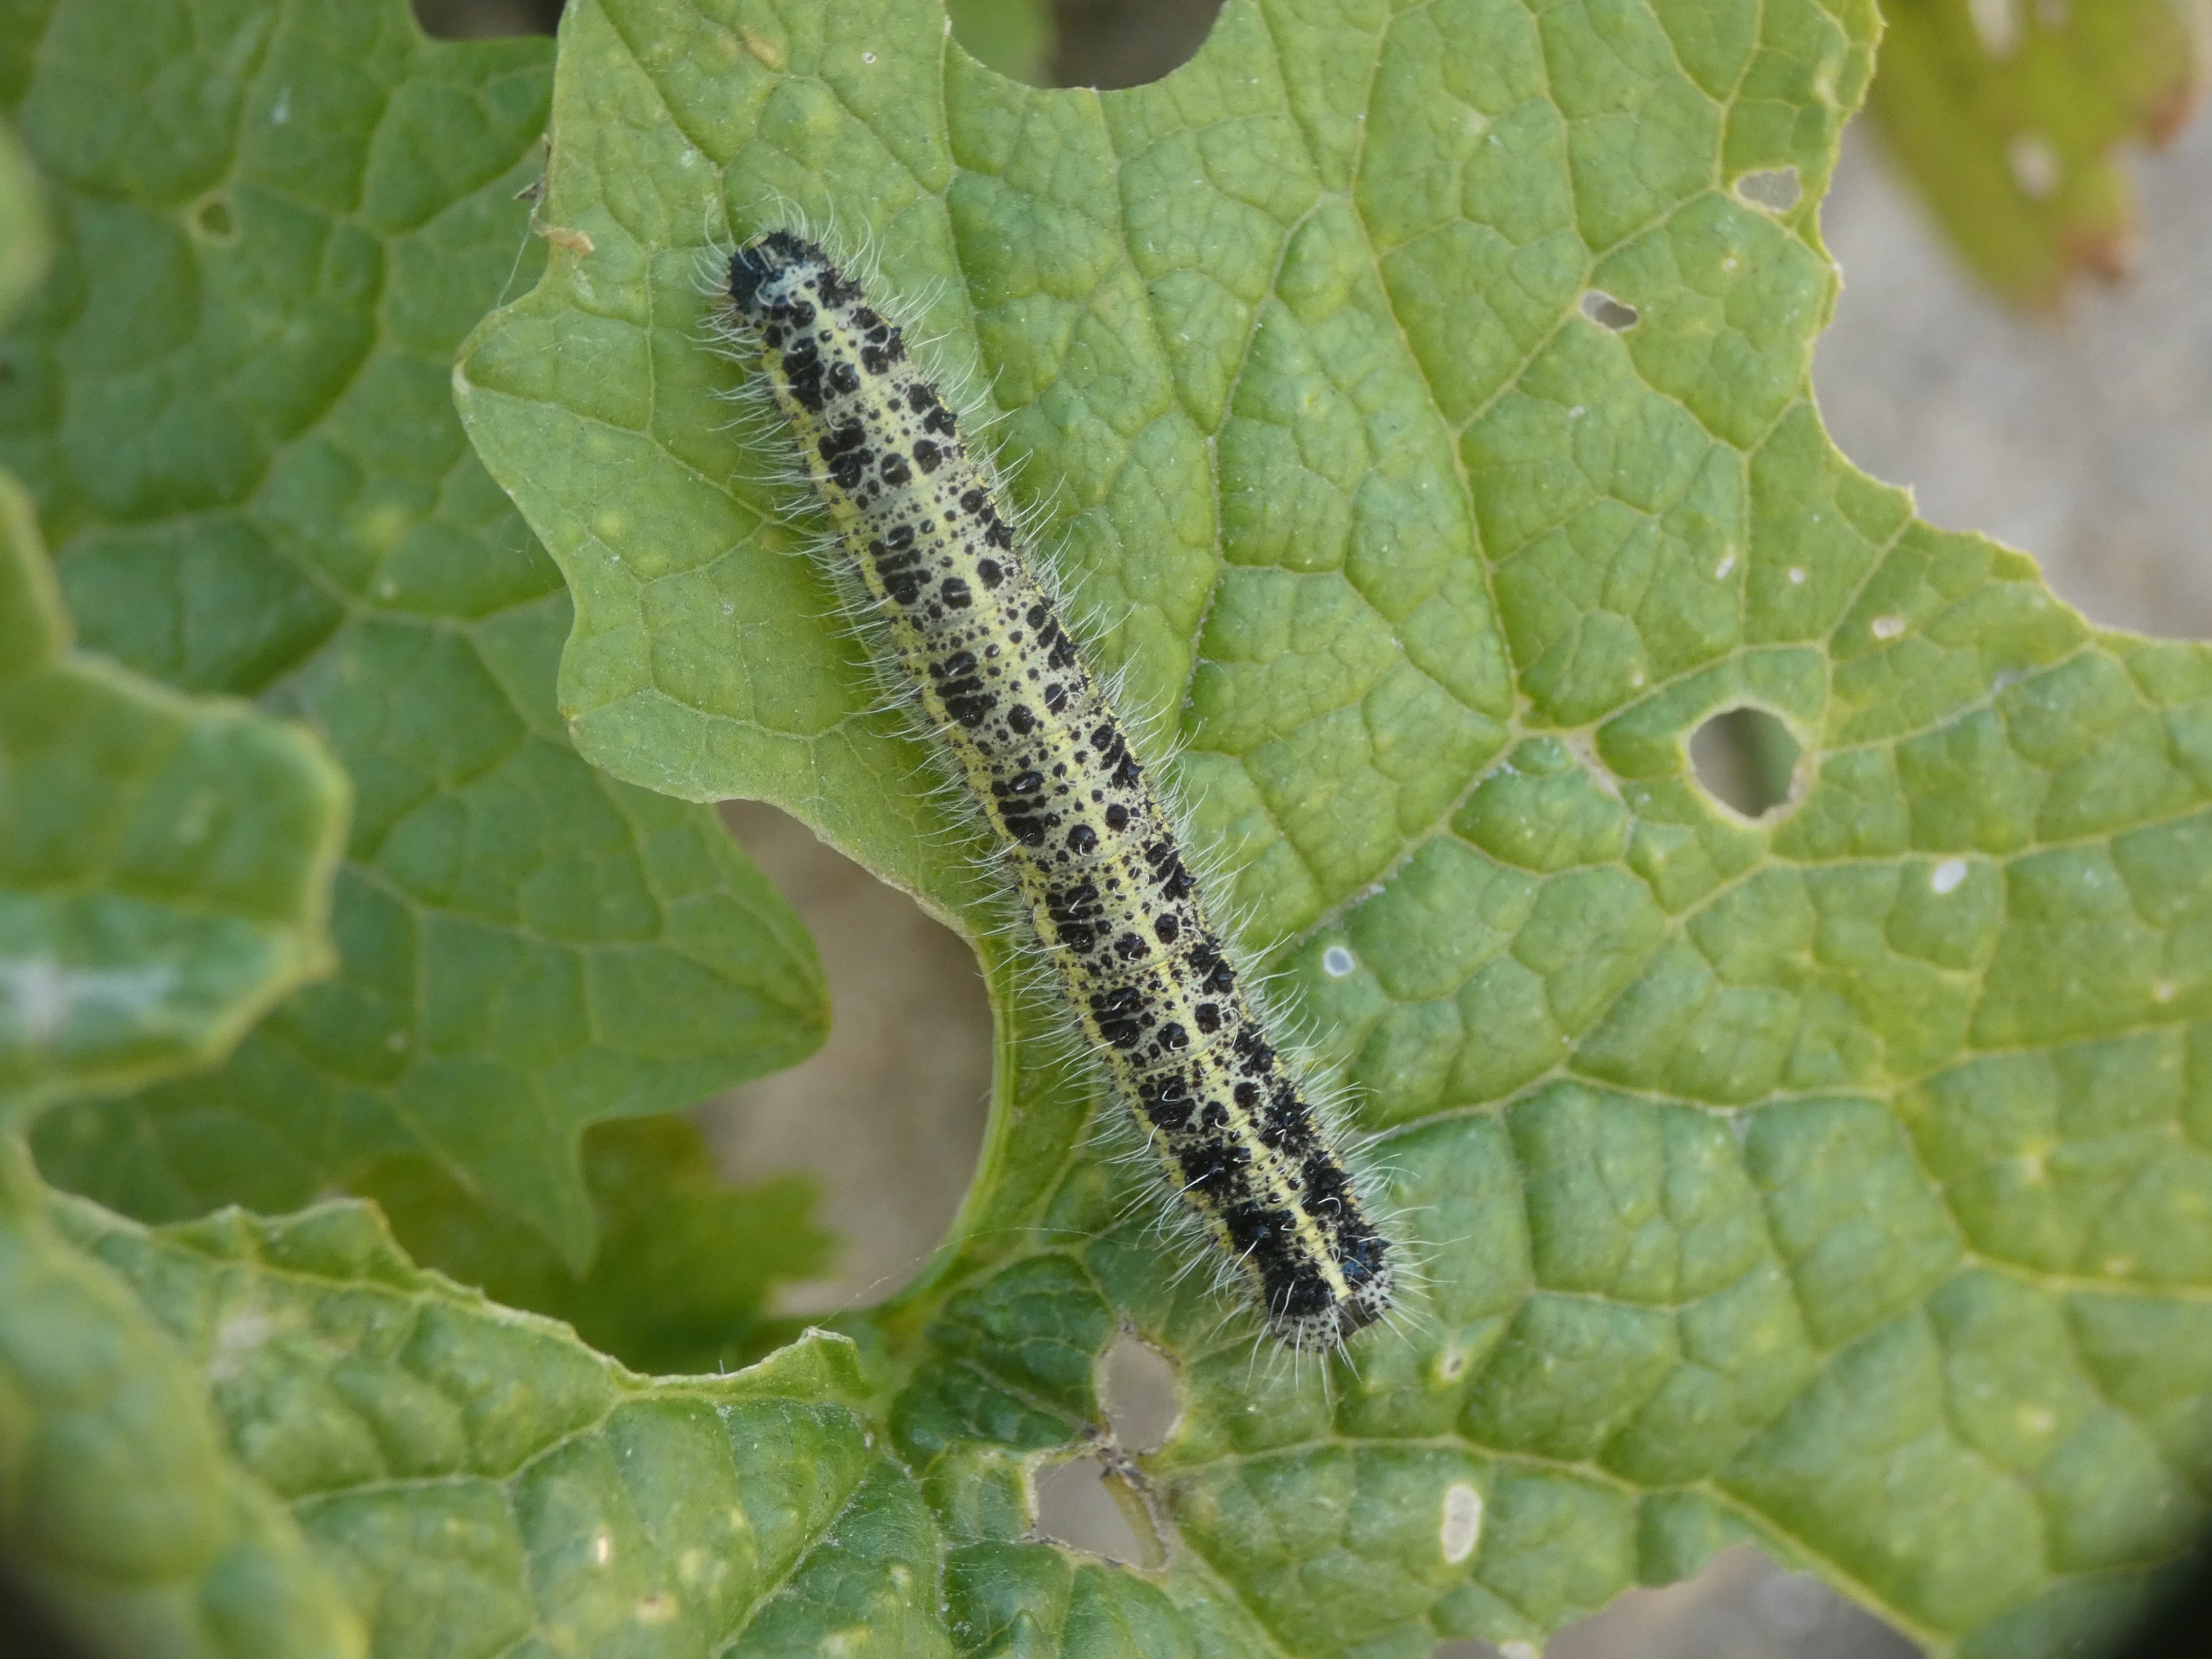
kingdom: Animalia
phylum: Arthropoda
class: Insecta
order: Lepidoptera
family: Pieridae
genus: Pieris
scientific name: Pieris brassicae
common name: Stor kålsommerfugl
